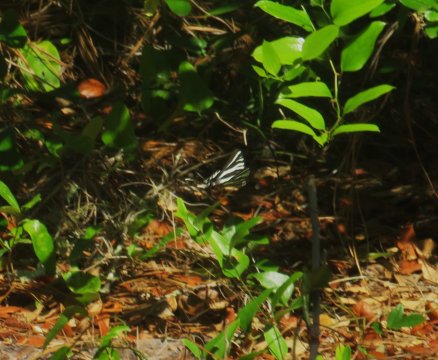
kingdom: Animalia
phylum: Arthropoda
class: Insecta
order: Lepidoptera
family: Papilionidae
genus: Protographium
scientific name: Protographium marcellus
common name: Zebra Swallowtail
